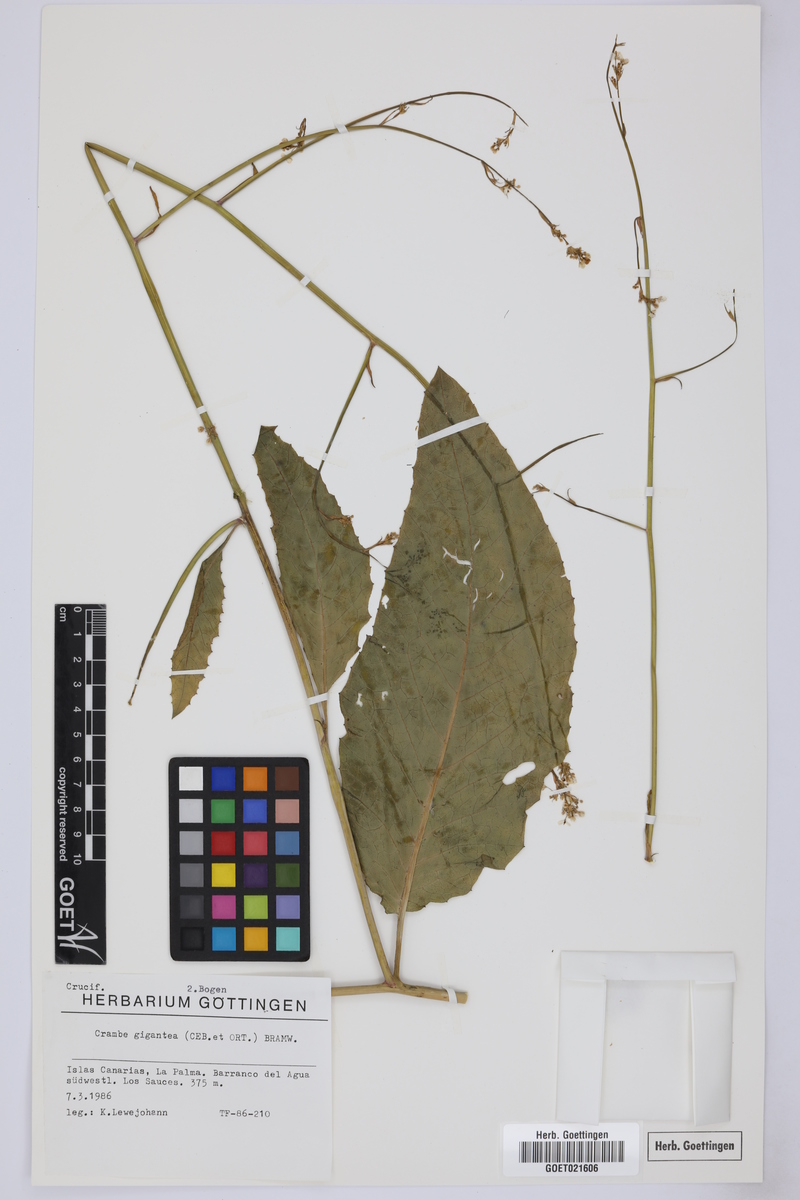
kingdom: Plantae
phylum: Tracheophyta
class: Magnoliopsida
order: Brassicales
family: Brassicaceae
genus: Crambe
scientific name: Crambe santosii
